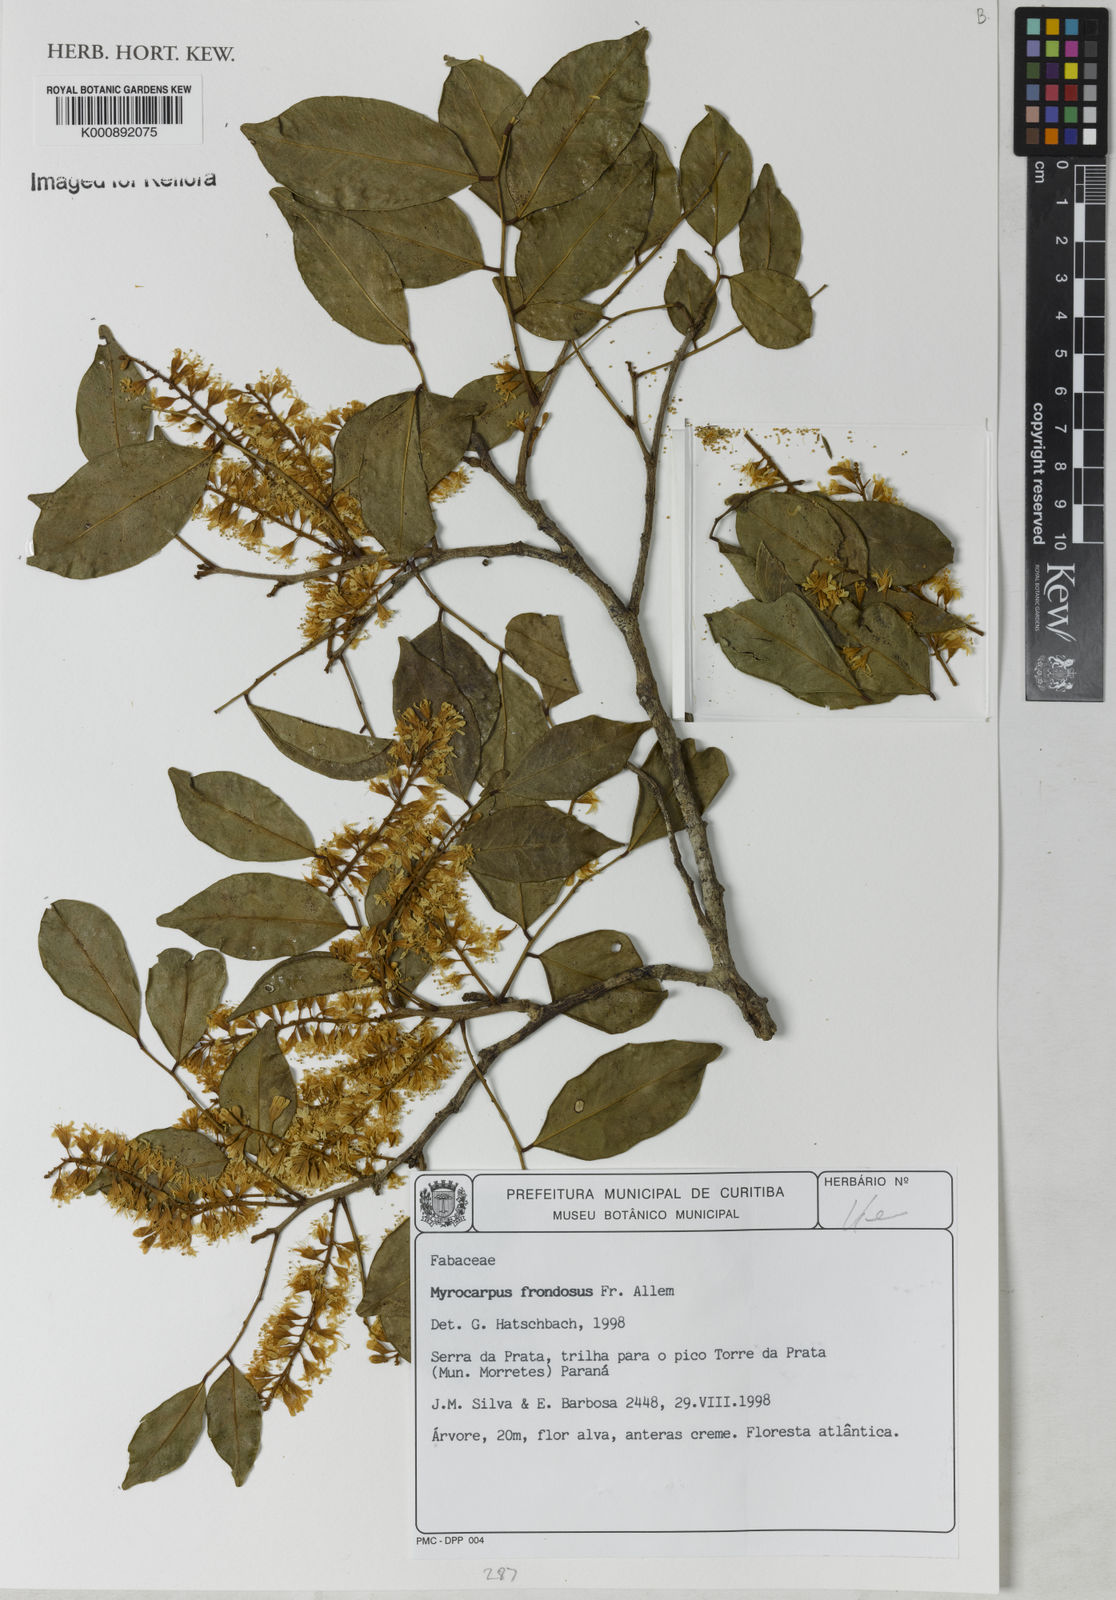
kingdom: Plantae
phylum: Tracheophyta
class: Magnoliopsida
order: Fabales
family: Fabaceae
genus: Myrocarpus
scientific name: Myrocarpus
